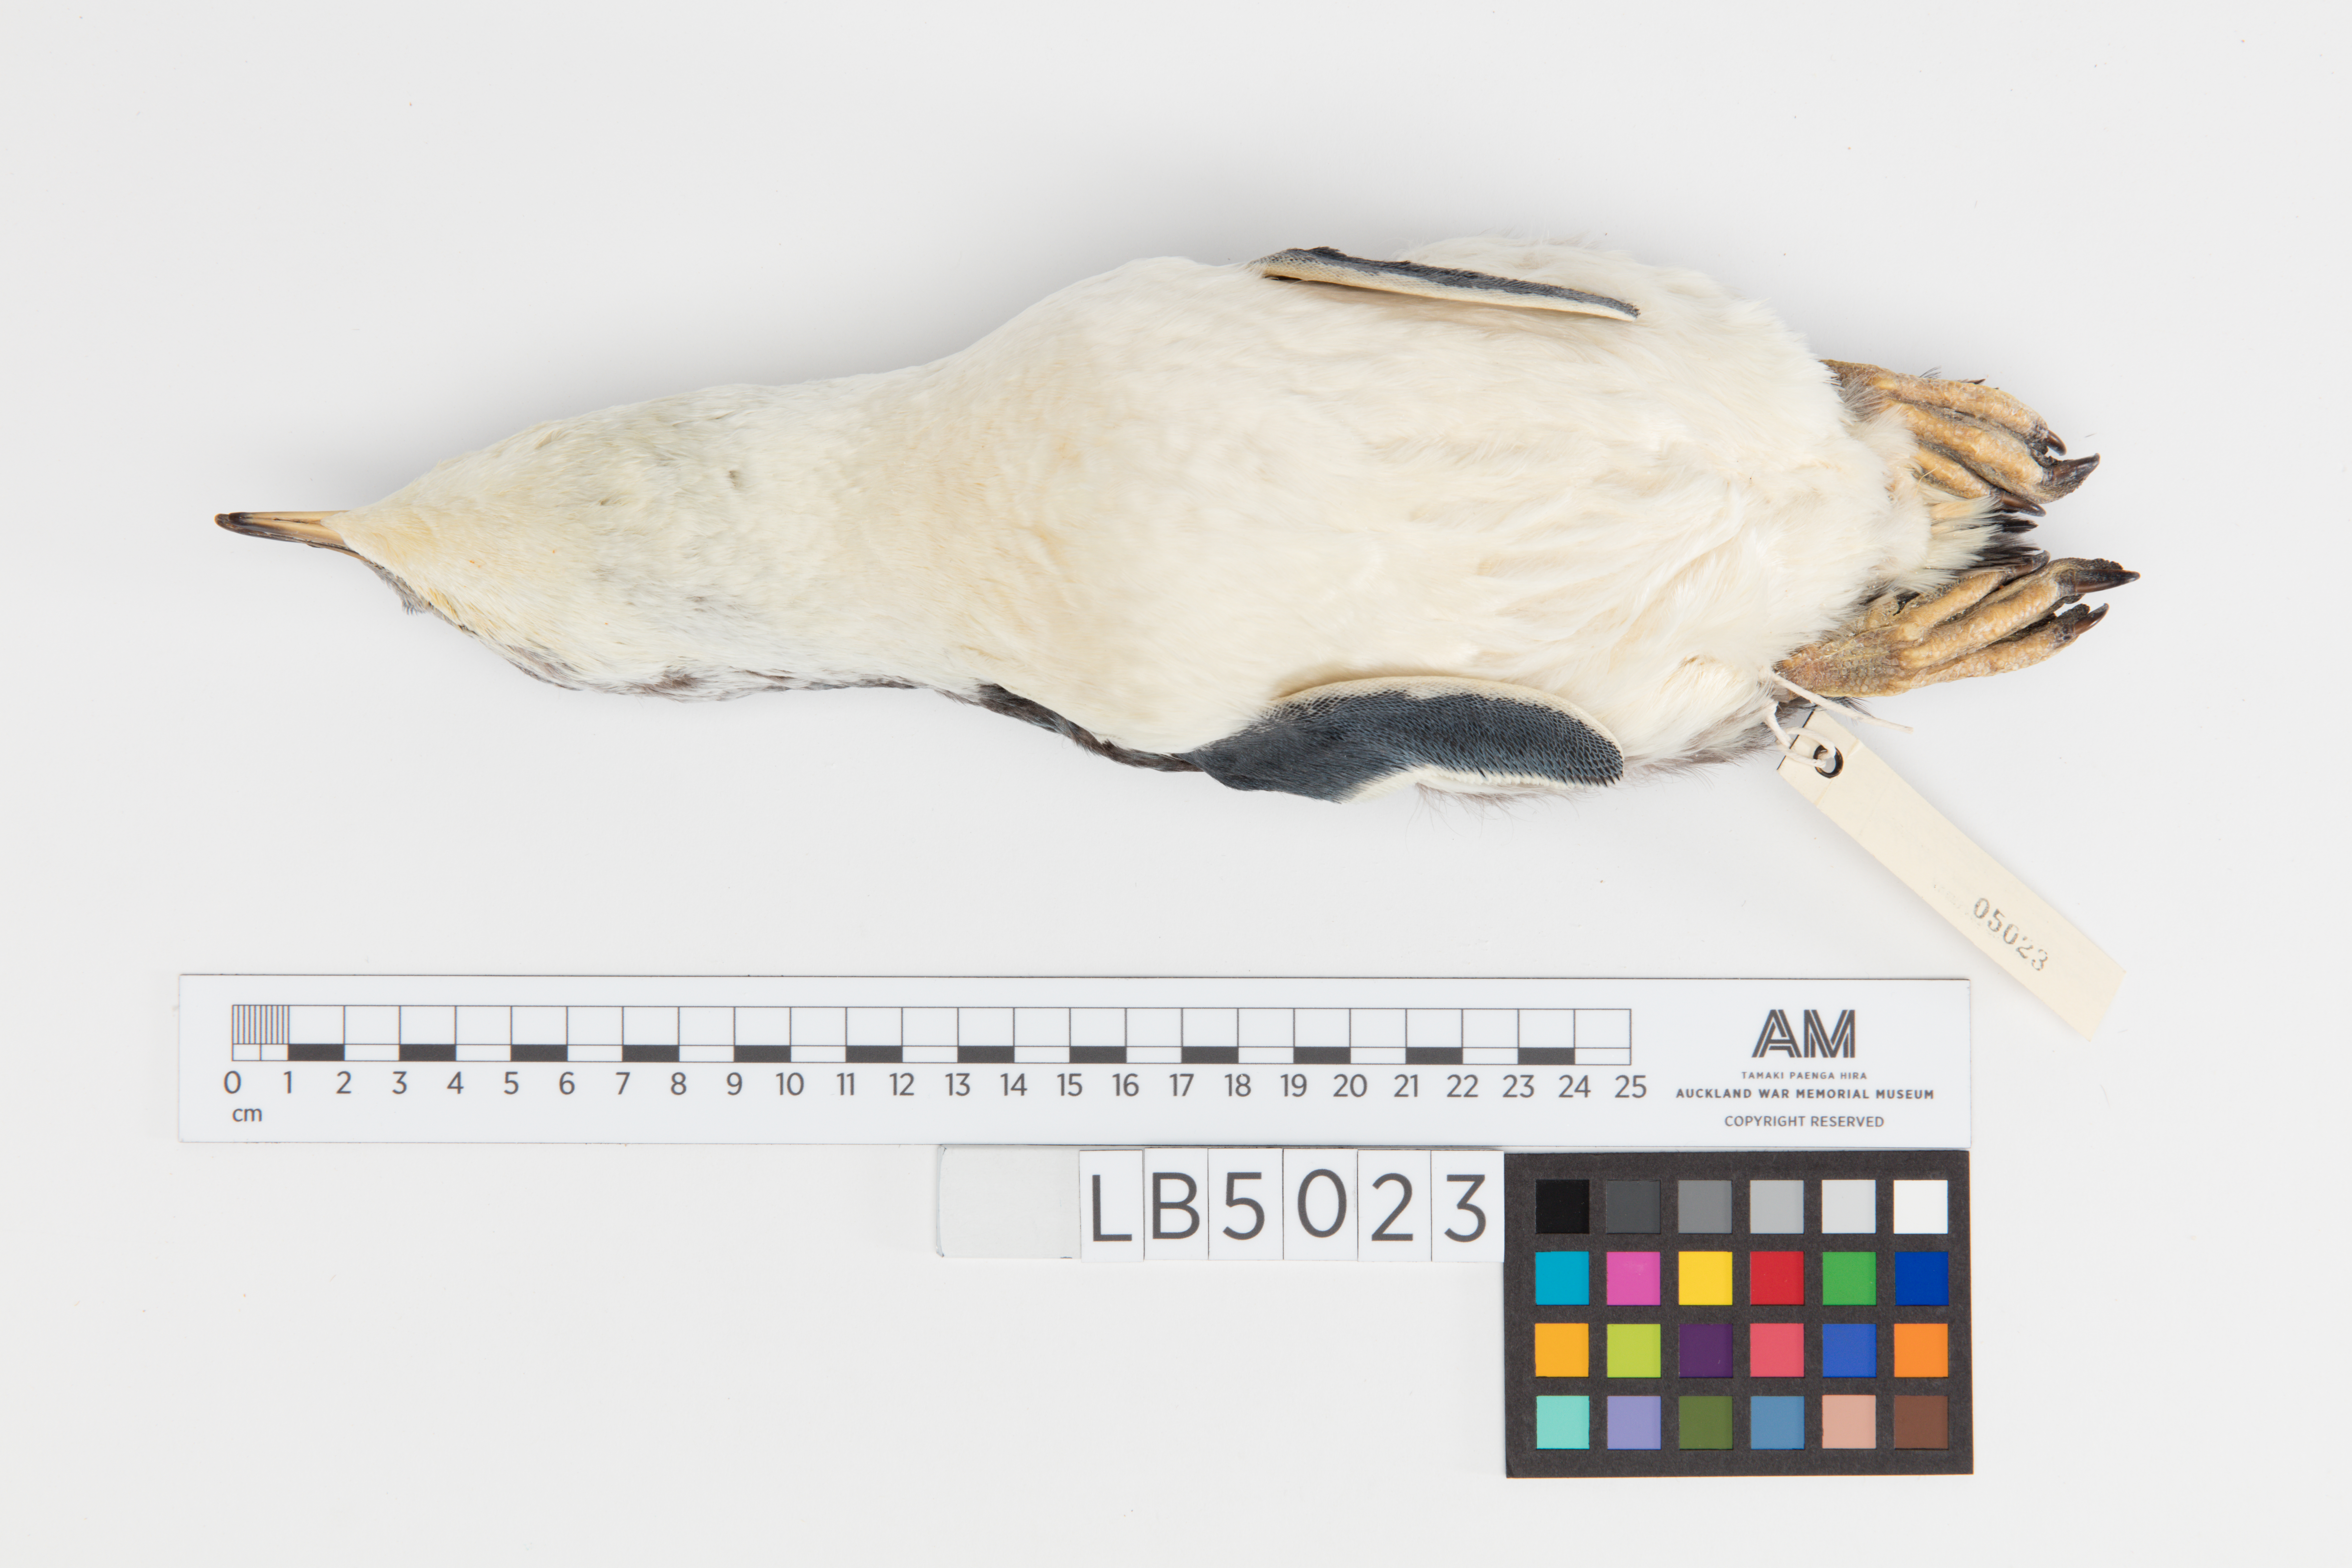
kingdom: Animalia
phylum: Chordata
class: Aves
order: Sphenisciformes
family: Spheniscidae
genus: Eudyptula
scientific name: Eudyptula minor
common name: Little penguin
